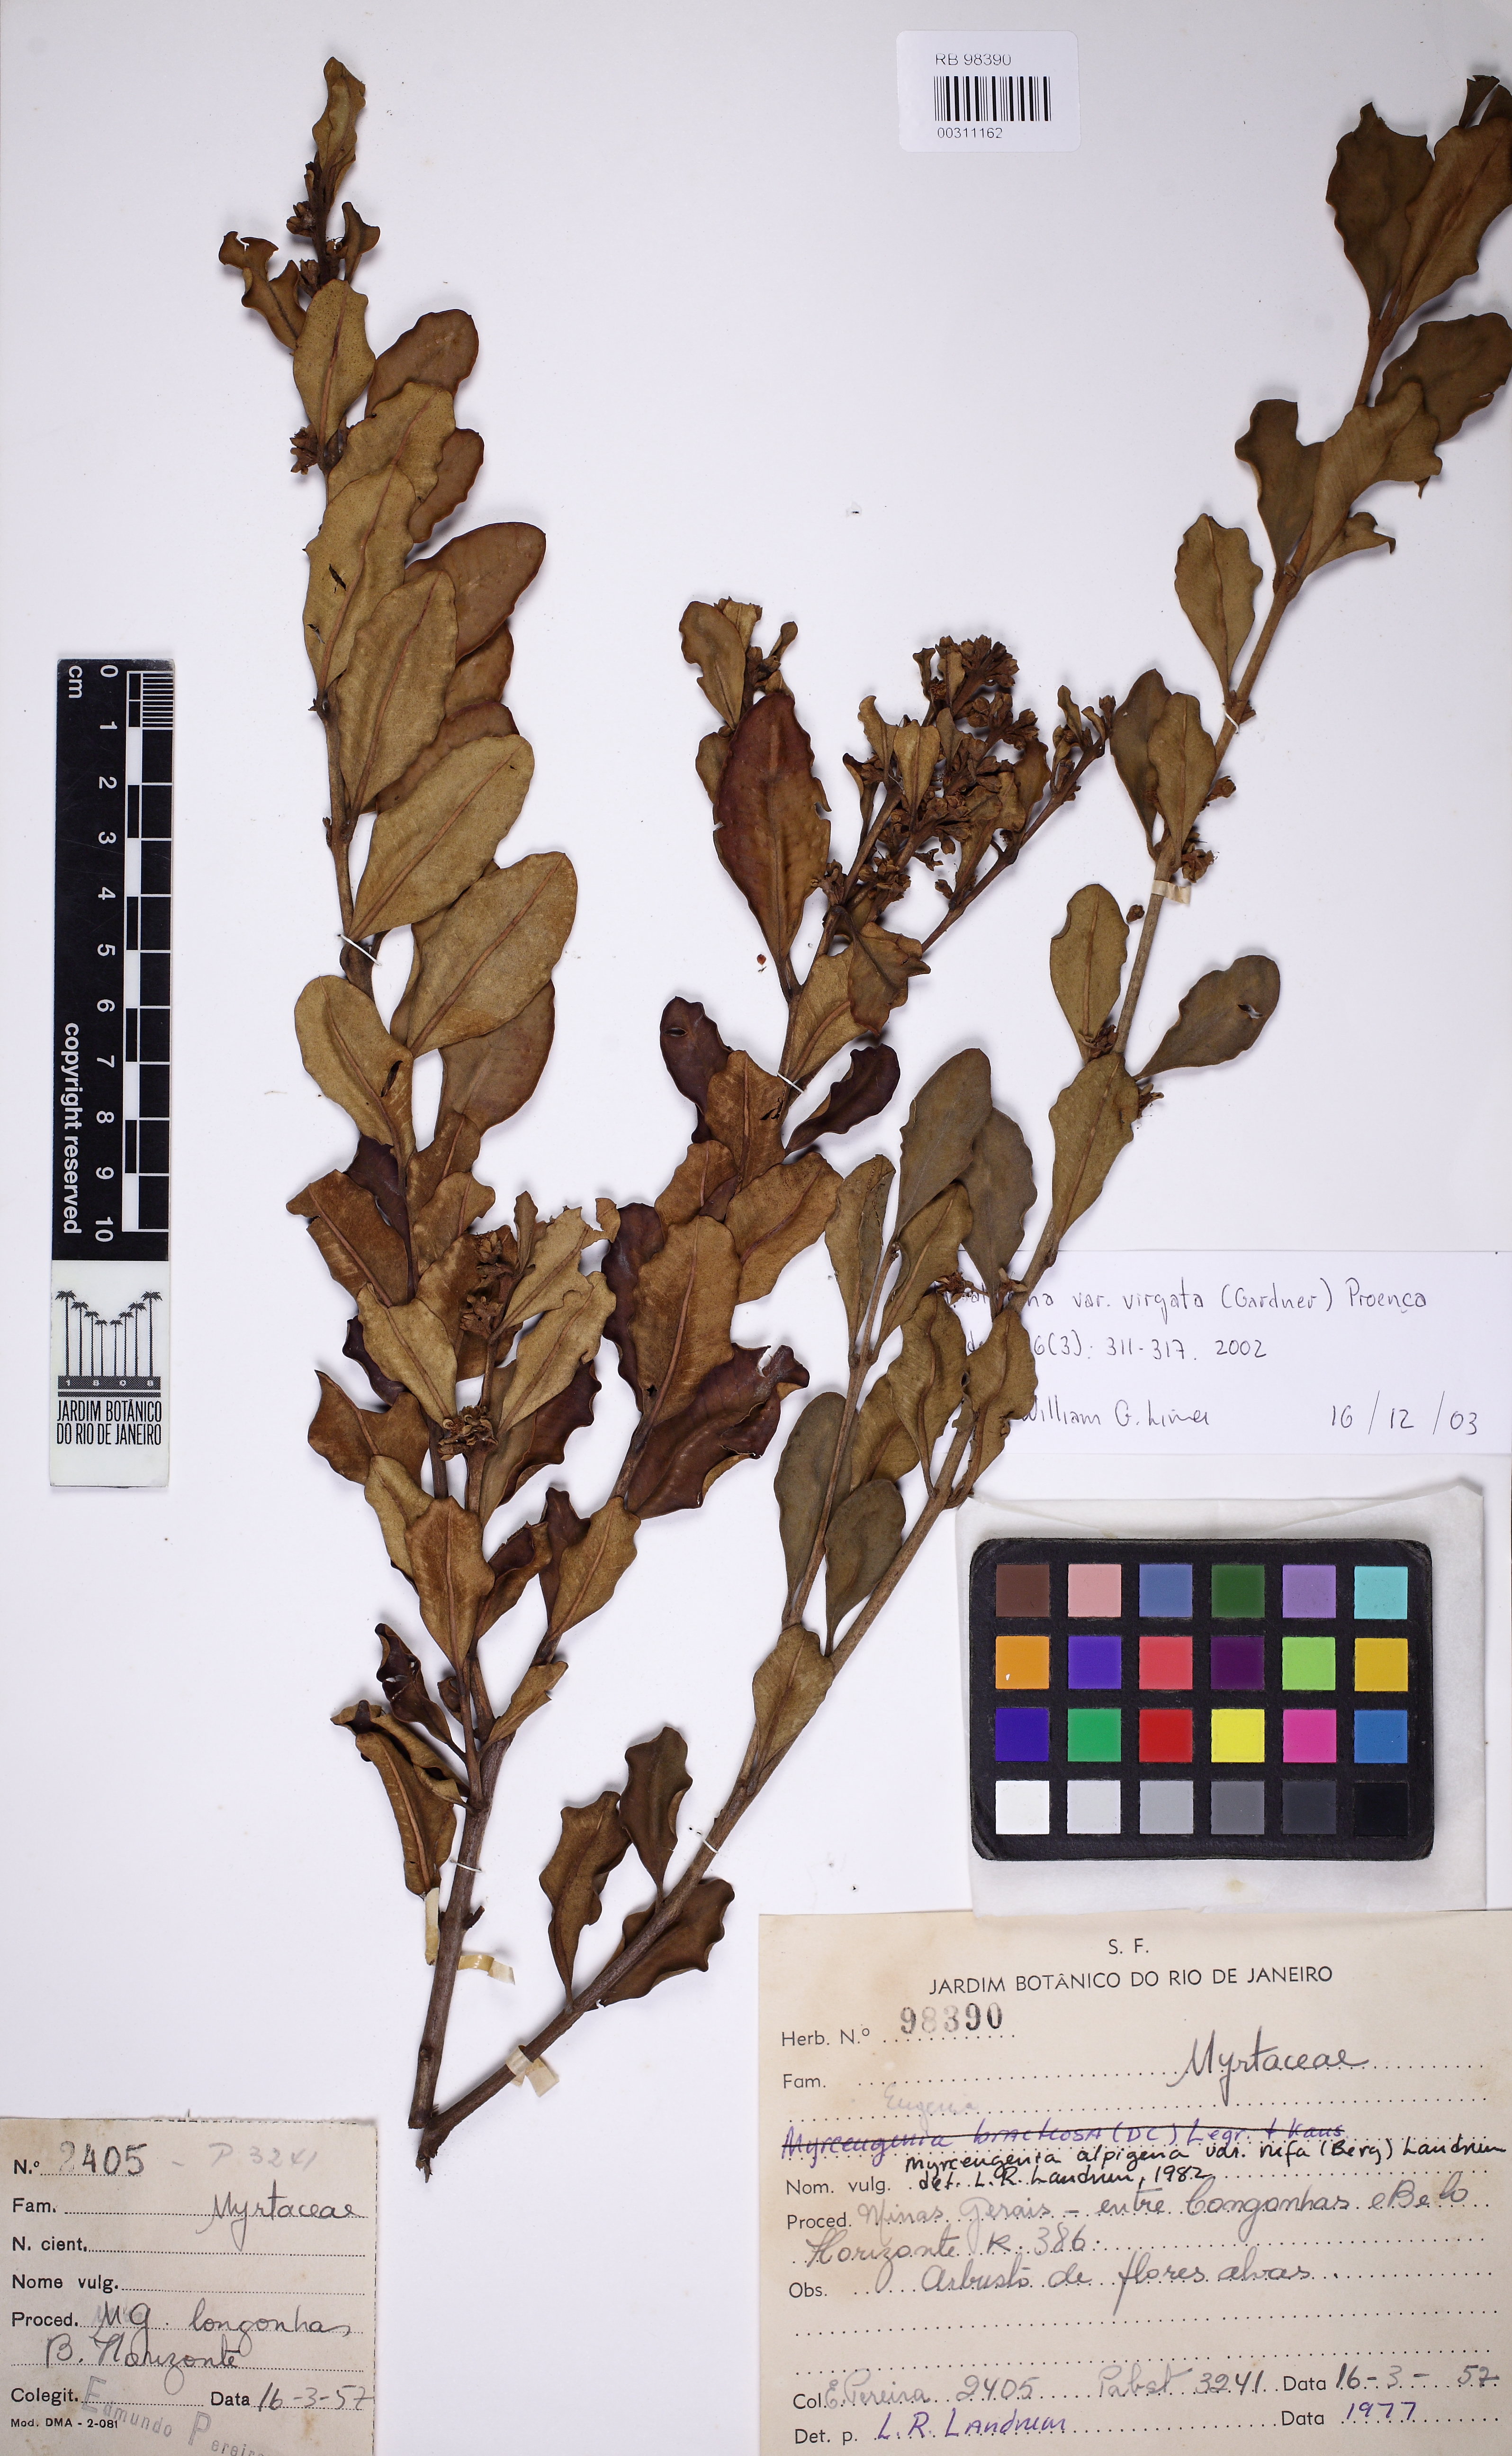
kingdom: Plantae
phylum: Tracheophyta
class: Magnoliopsida
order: Myrtales
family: Myrtaceae
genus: Eugenia
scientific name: Eugenia biflora
